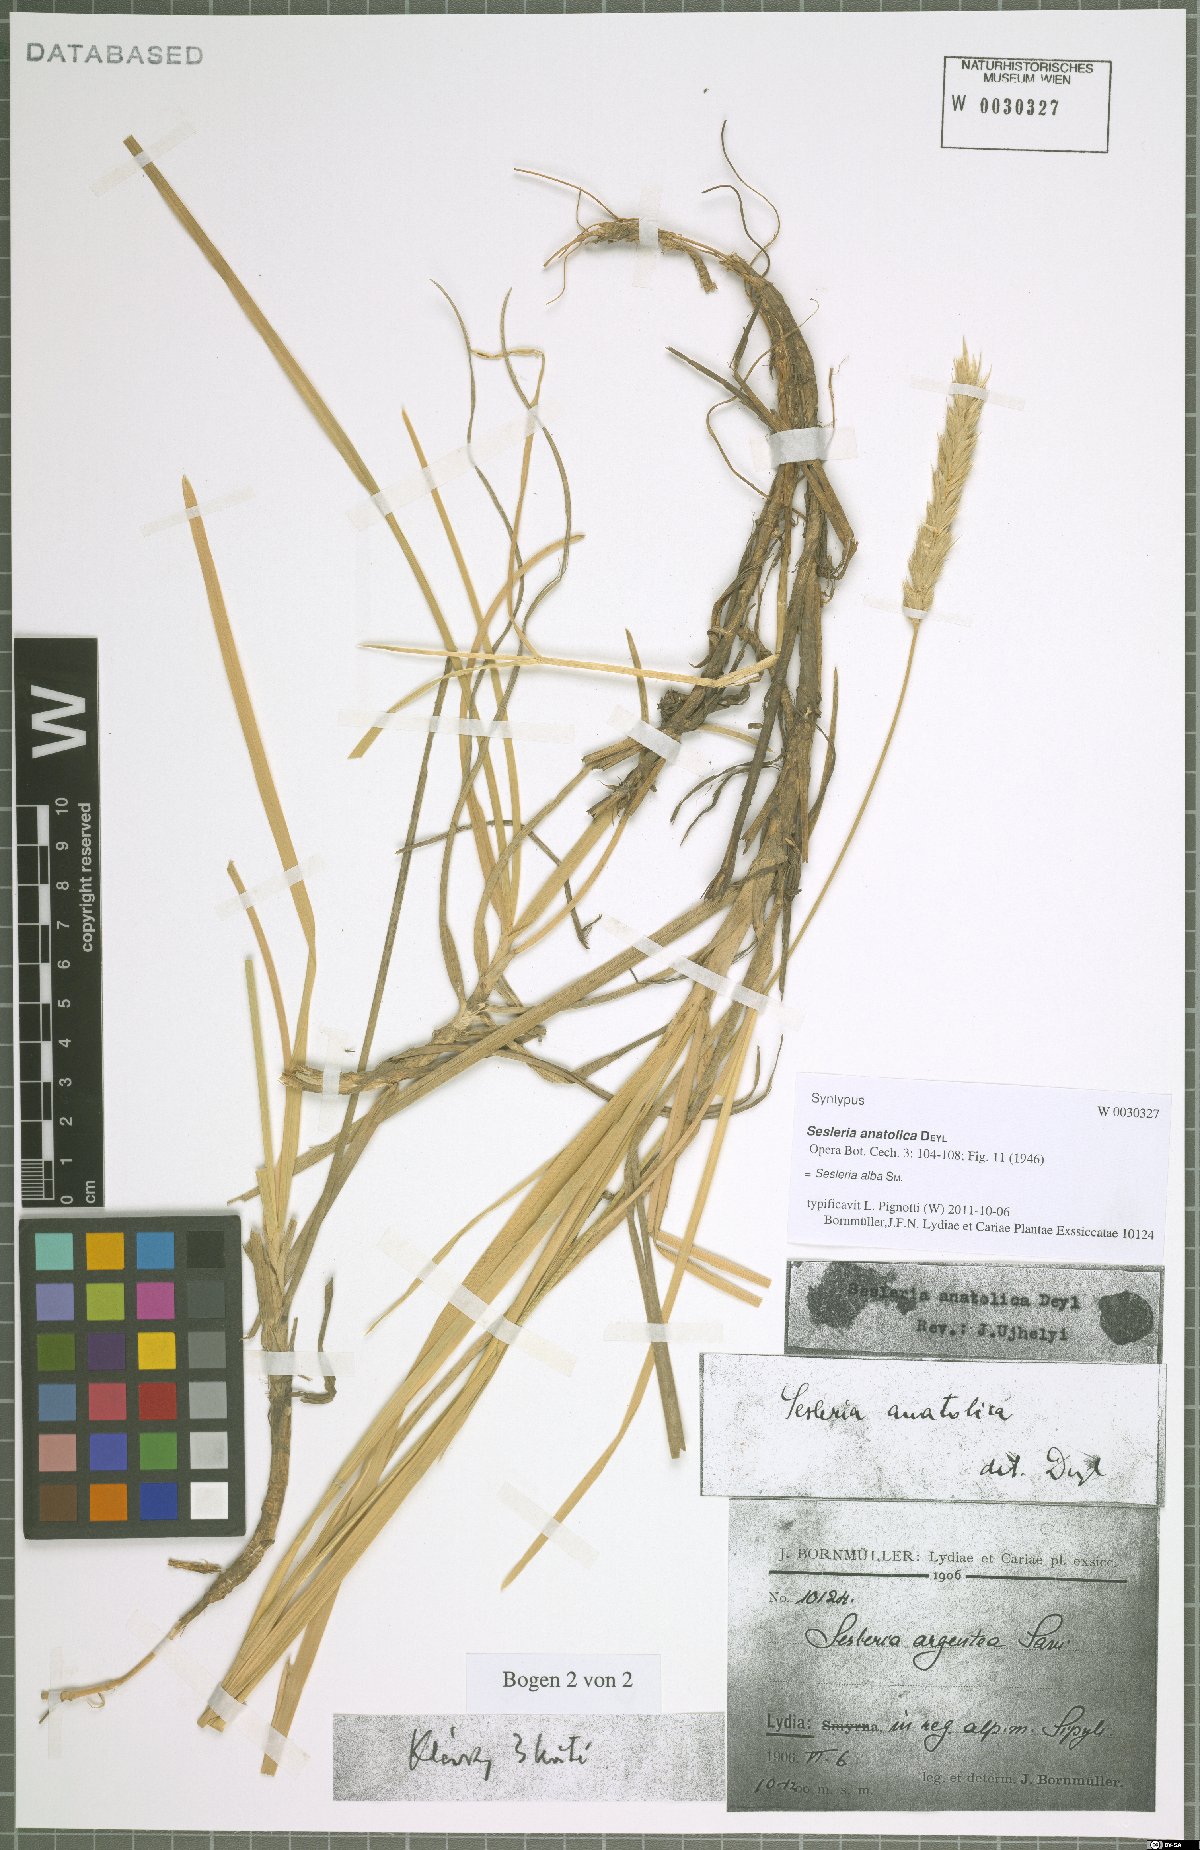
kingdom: Plantae
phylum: Tracheophyta
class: Liliopsida
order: Poales
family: Poaceae
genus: Sesleria
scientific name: Sesleria alba
